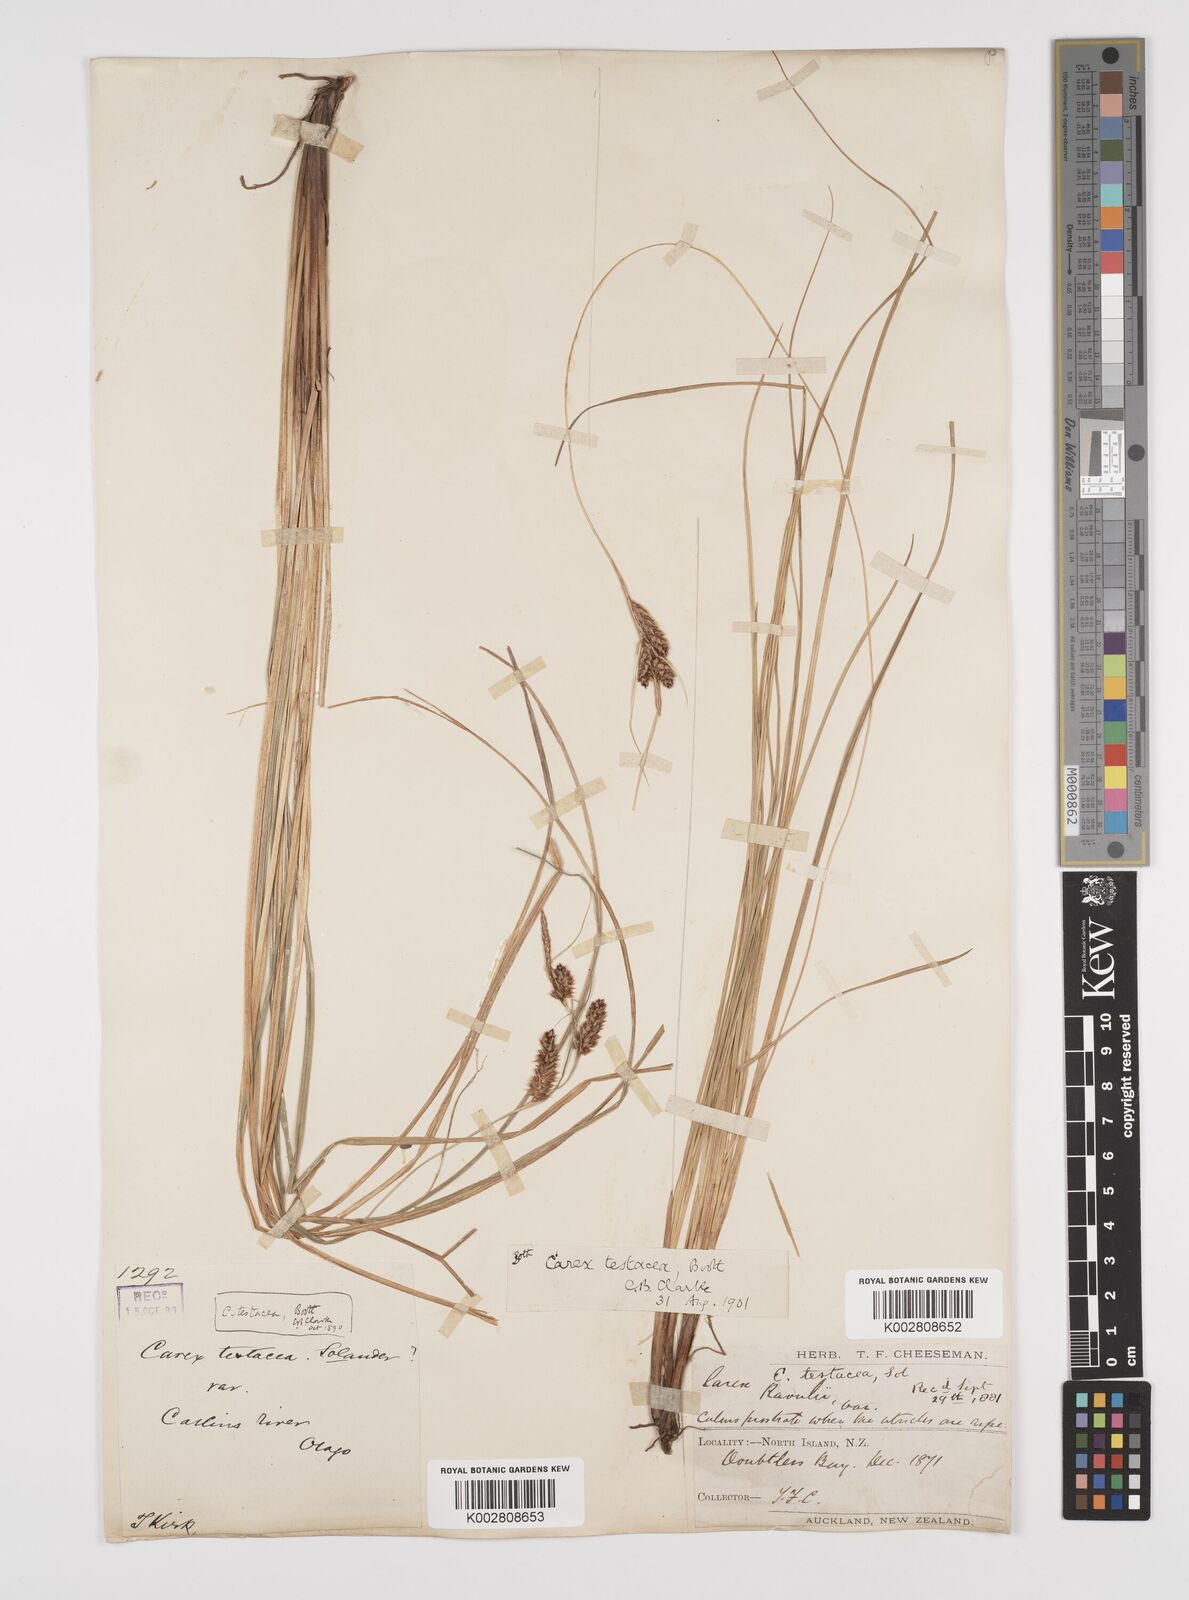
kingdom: Plantae
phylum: Tracheophyta
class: Liliopsida
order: Poales
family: Cyperaceae
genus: Carex
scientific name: Carex testacea
